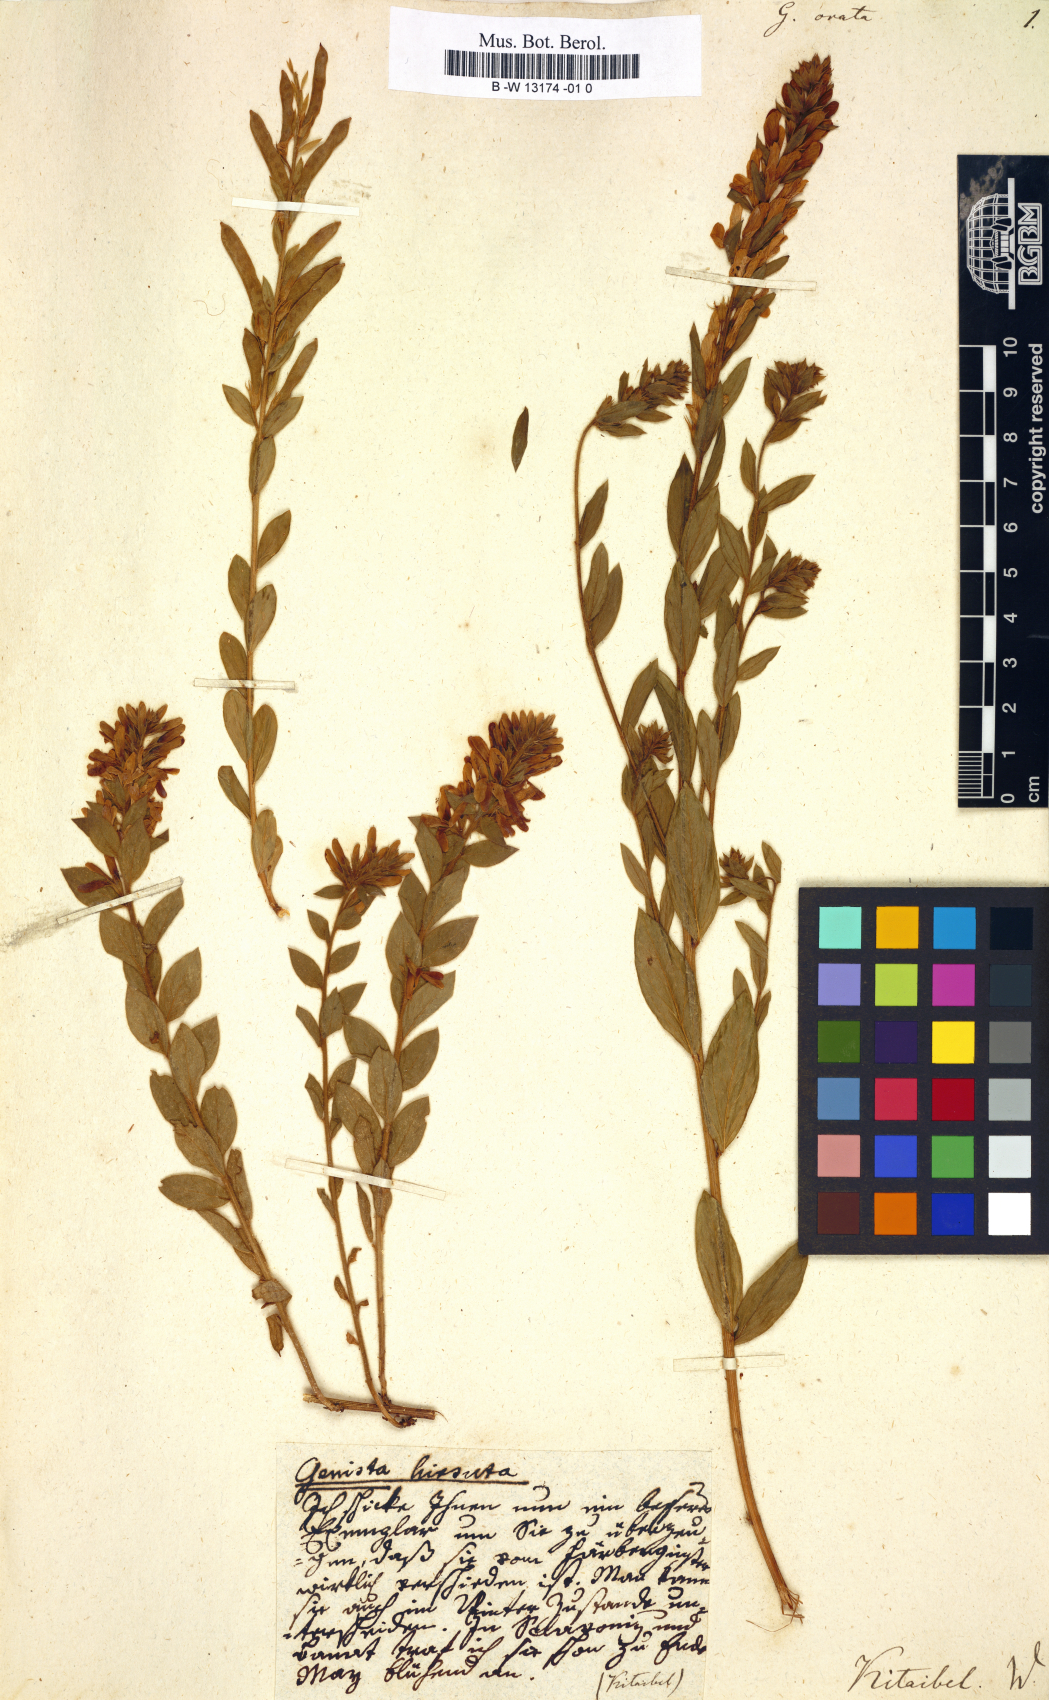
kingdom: Plantae
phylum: Tracheophyta
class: Magnoliopsida
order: Fabales
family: Fabaceae
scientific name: Fabaceae
